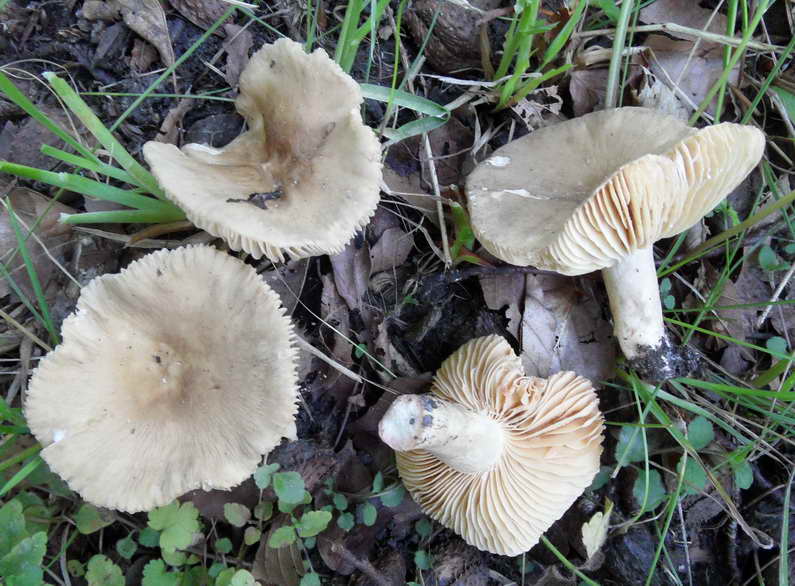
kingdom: Fungi
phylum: Basidiomycota
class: Agaricomycetes
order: Russulales
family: Russulaceae
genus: Lactarius
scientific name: Lactarius azonites
